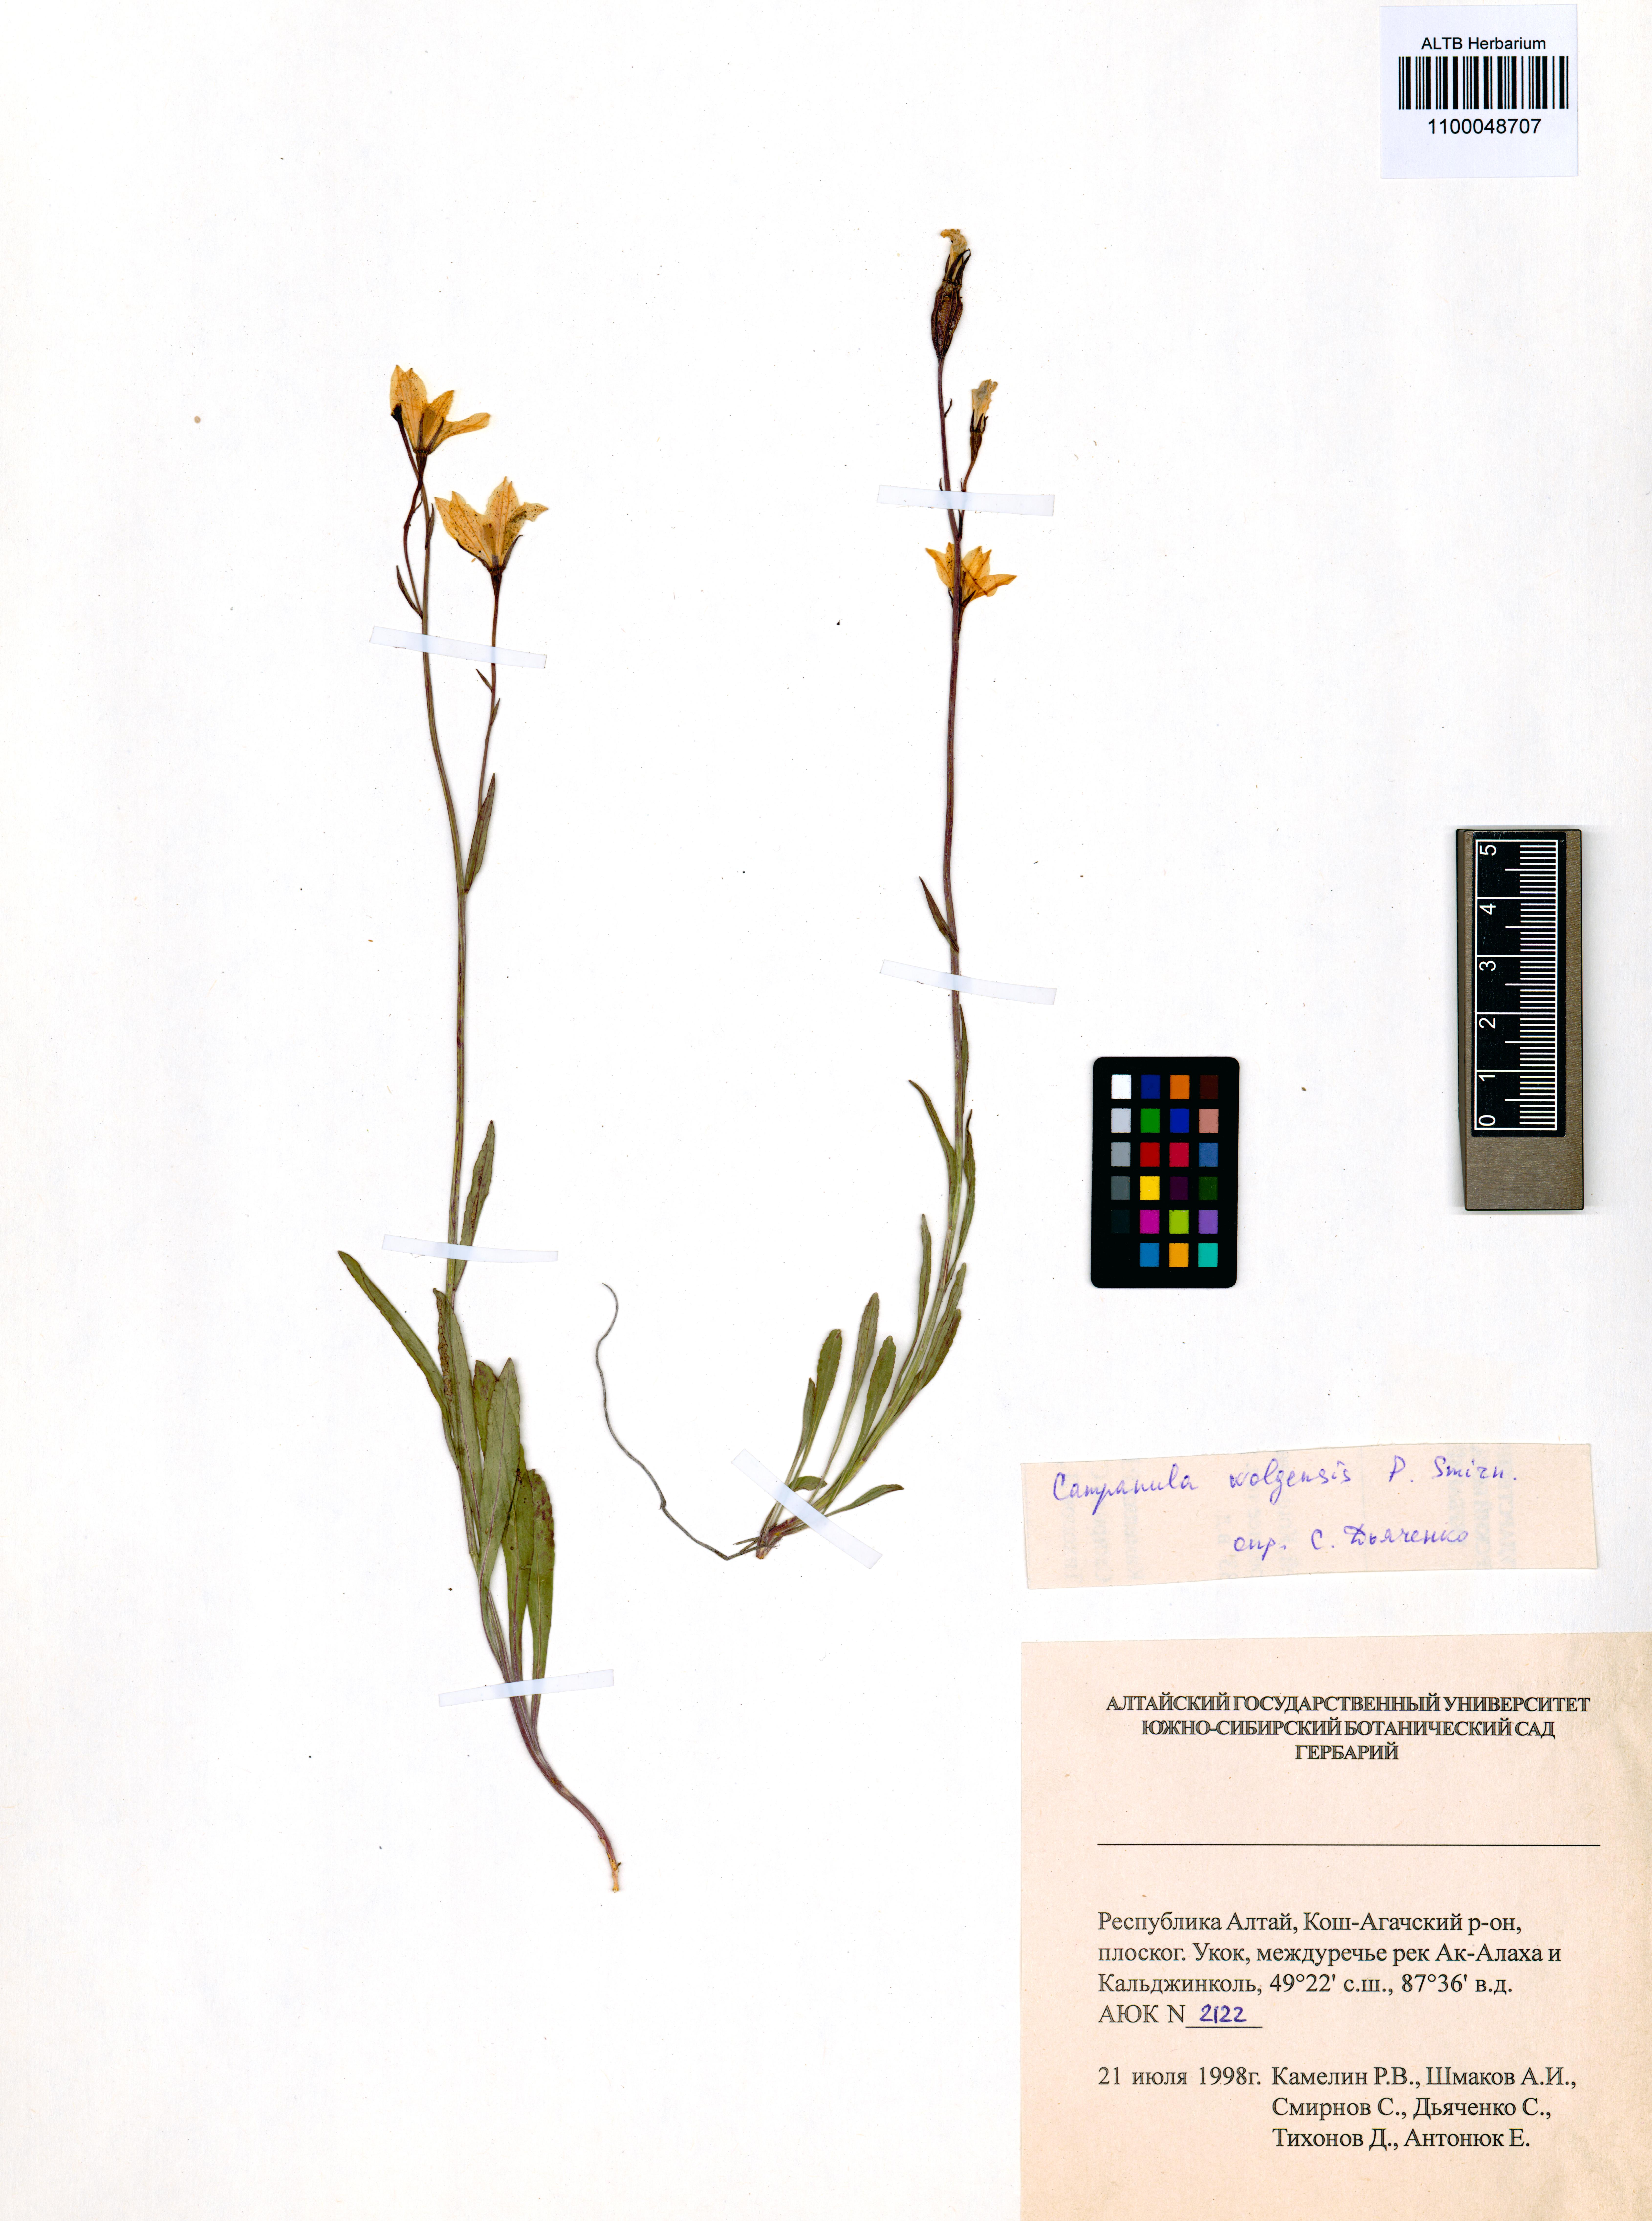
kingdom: Plantae
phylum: Tracheophyta
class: Magnoliopsida
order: Asterales
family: Campanulaceae
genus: Campanula
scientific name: Campanula stevenii
